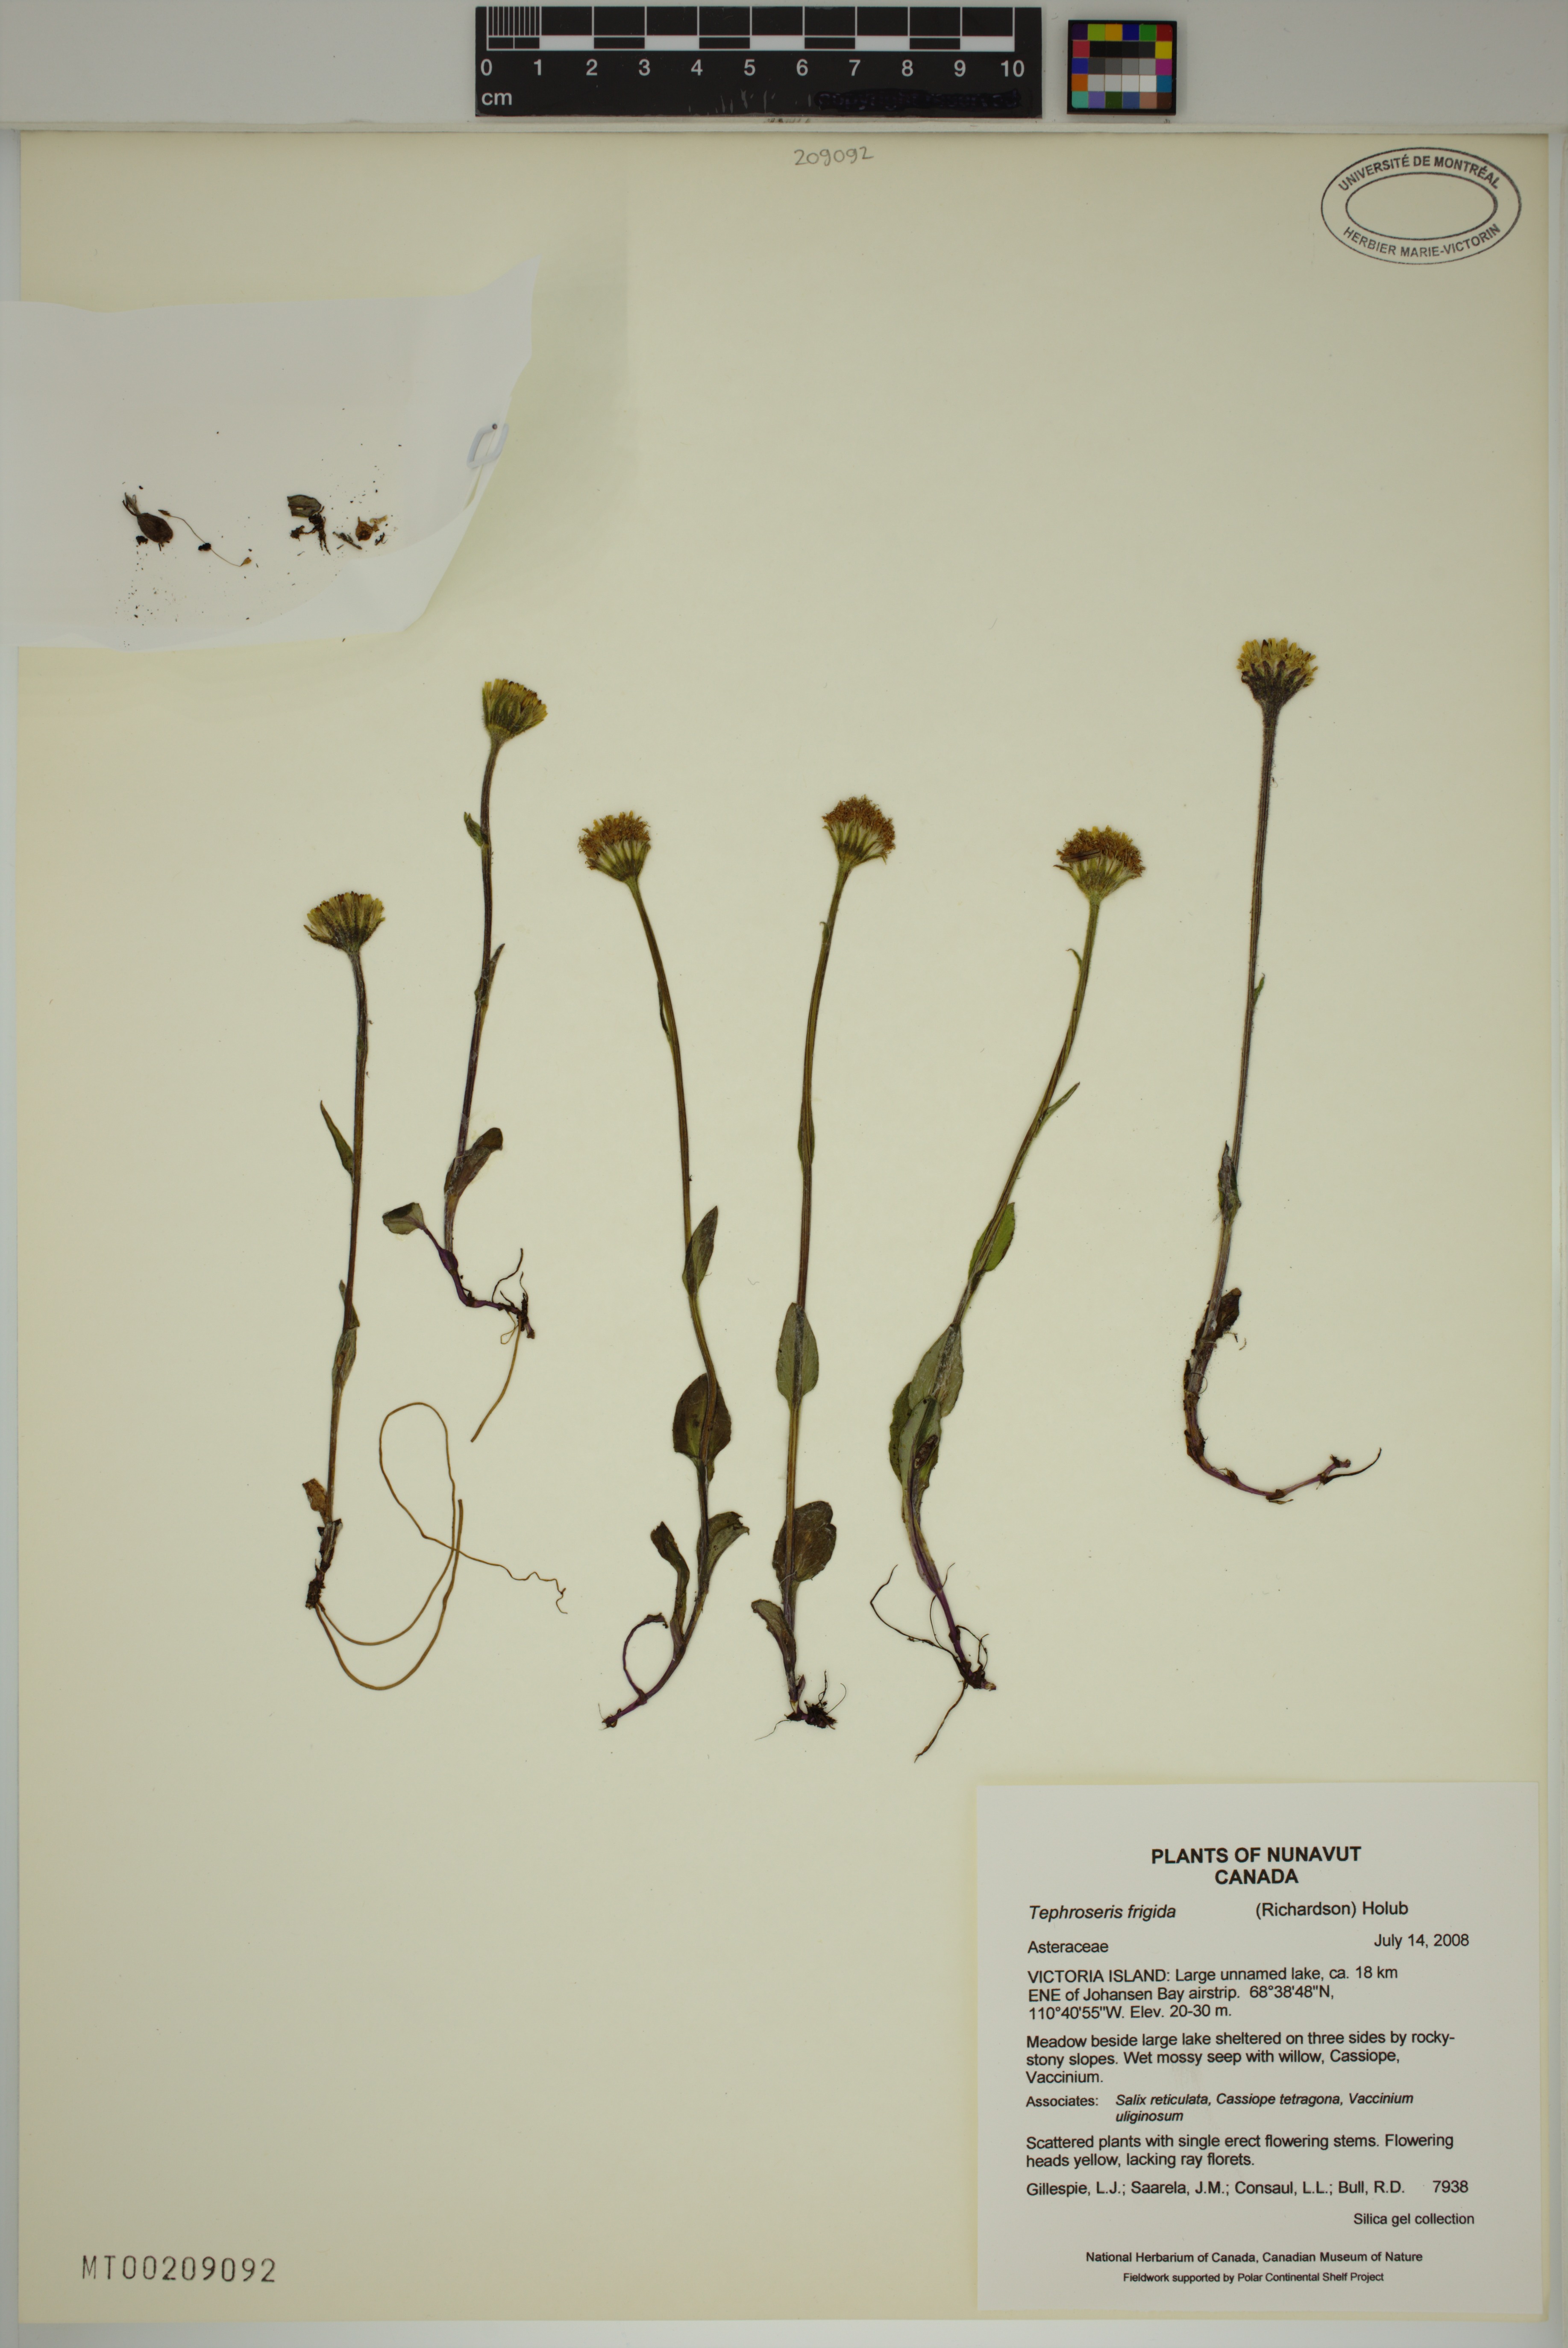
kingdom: Plantae
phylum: Tracheophyta
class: Magnoliopsida
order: Asterales
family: Asteraceae
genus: Tephroseris
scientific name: Tephroseris frigida
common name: Arctic groundsel
